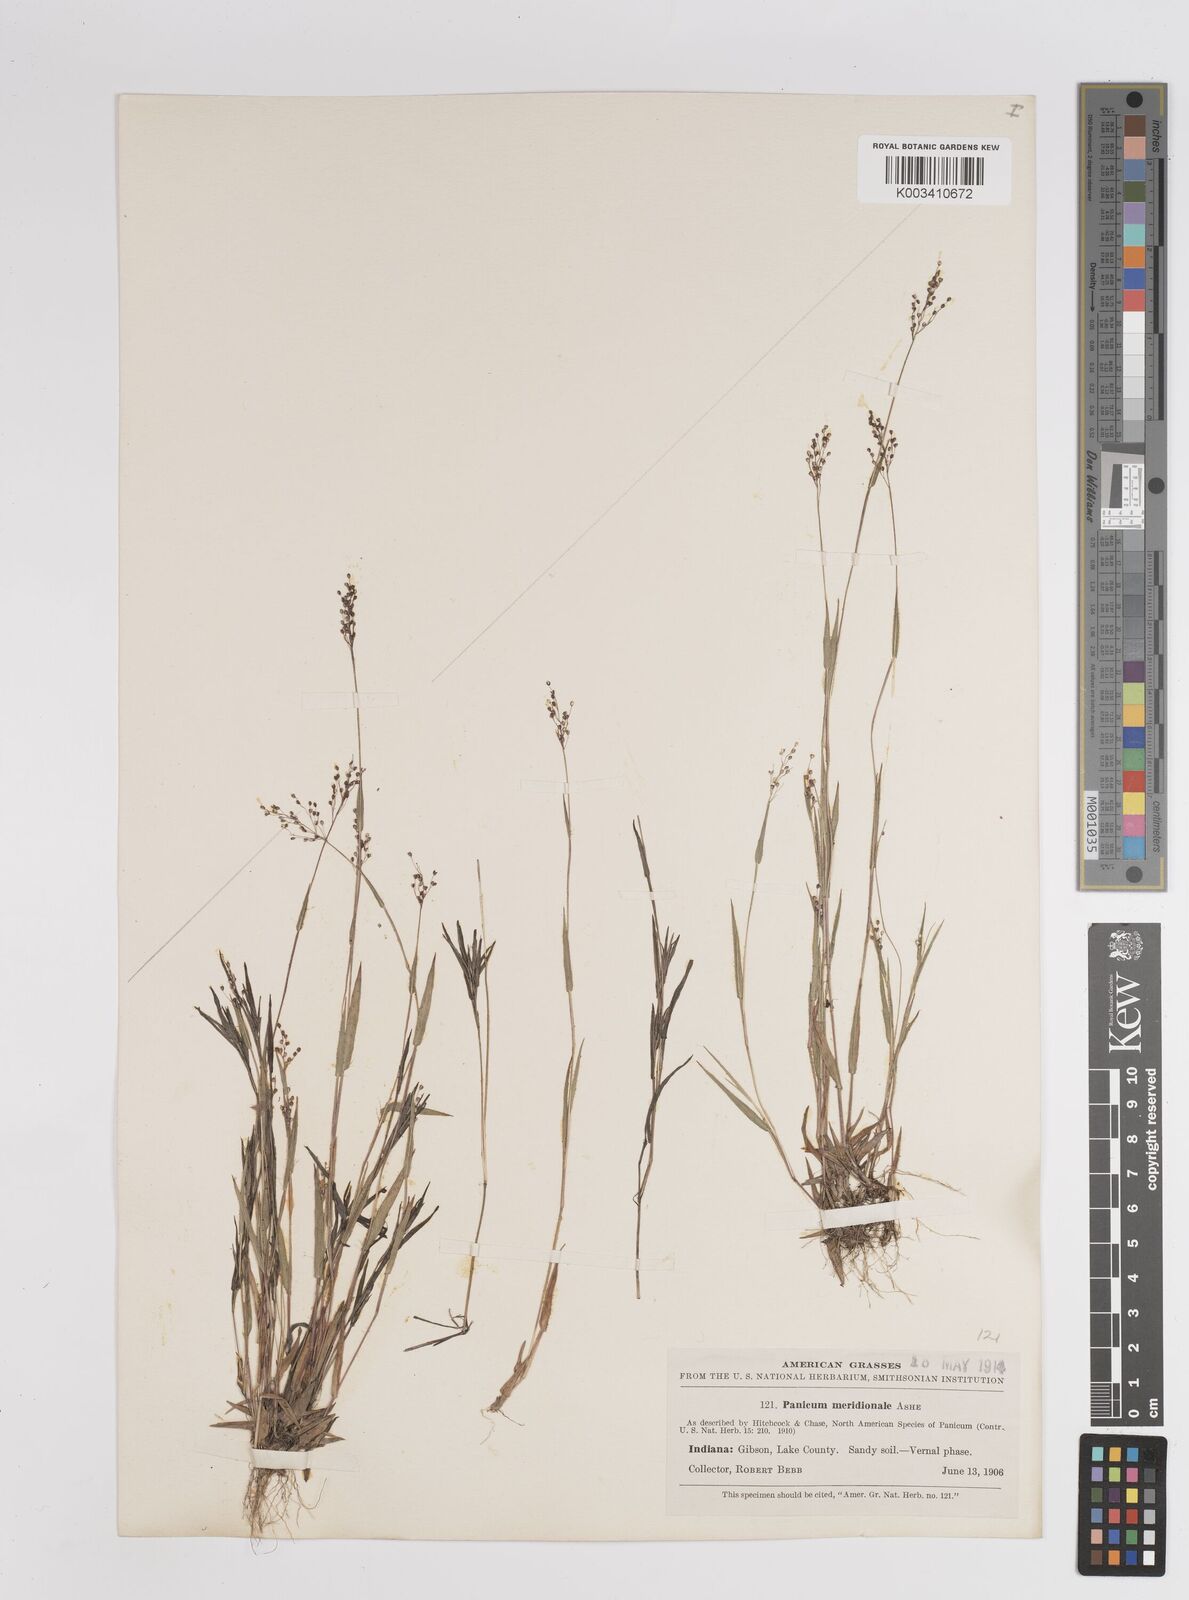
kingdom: Plantae
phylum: Tracheophyta
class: Liliopsida
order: Poales
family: Poaceae
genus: Dichanthelium
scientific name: Dichanthelium meridionale
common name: Mat panicgrass
